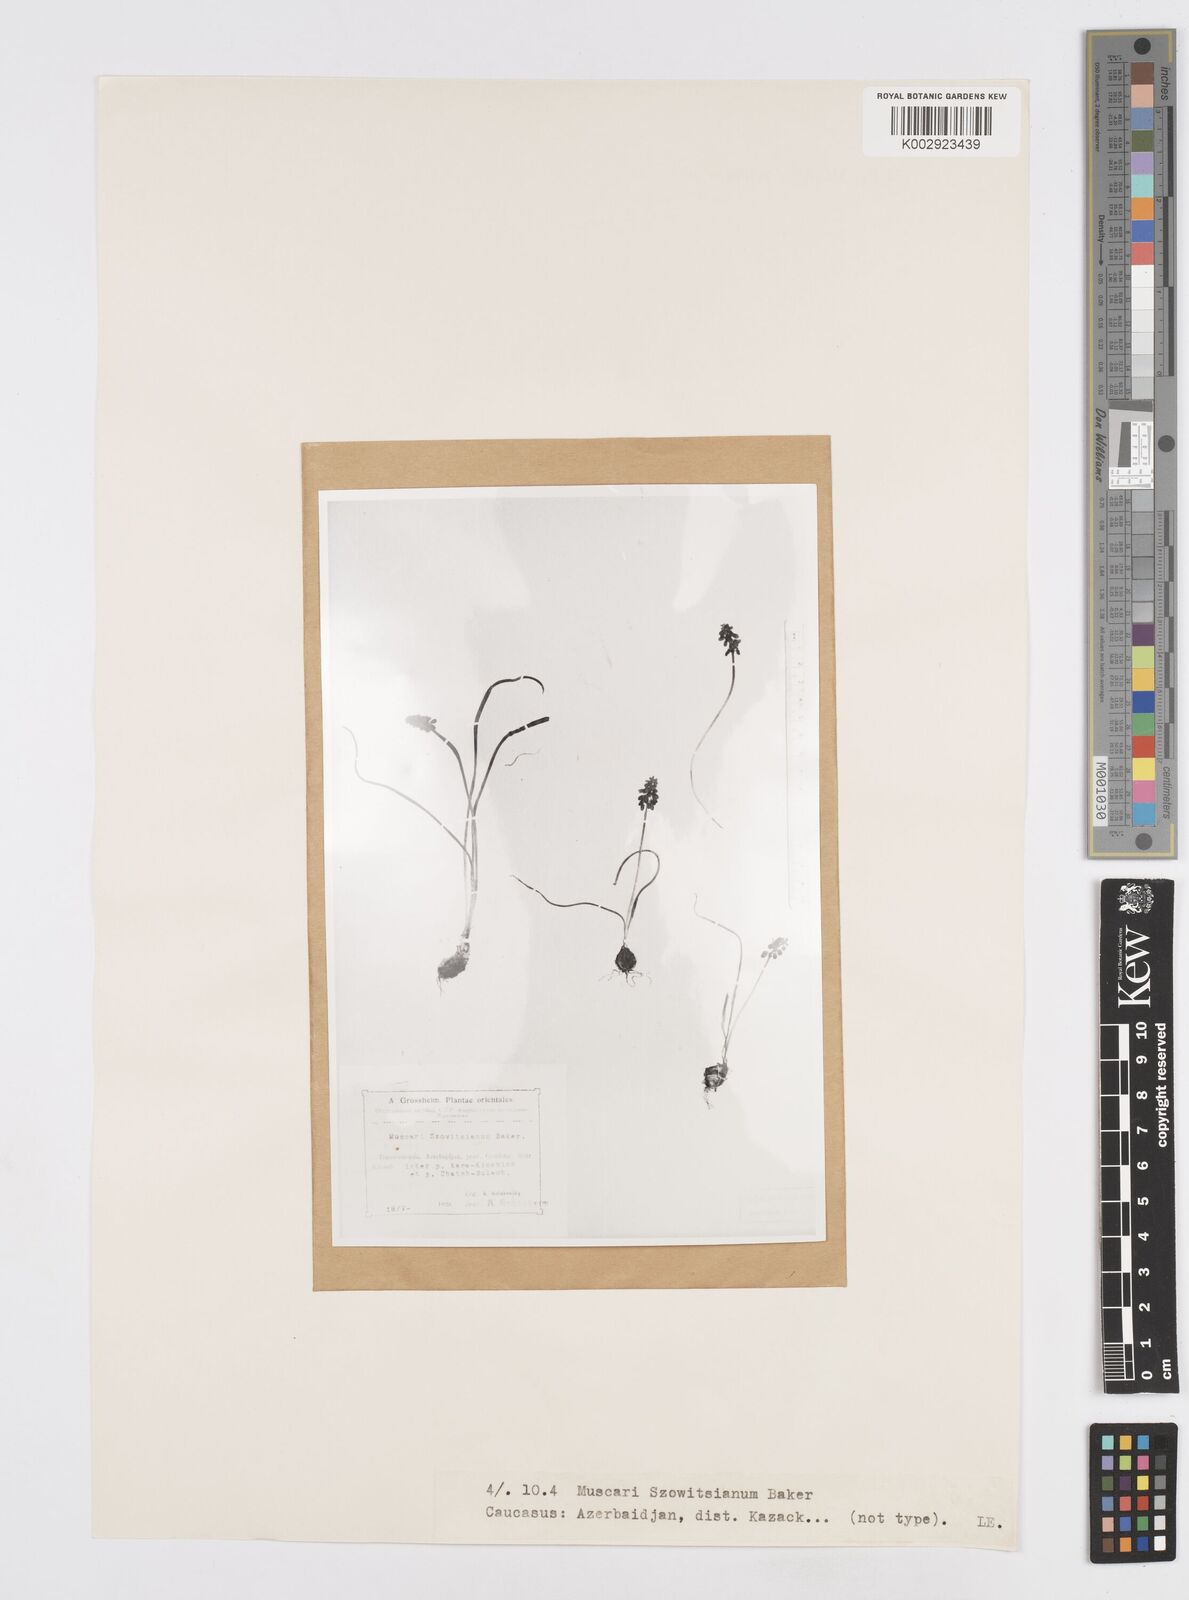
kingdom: Plantae
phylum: Tracheophyta
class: Liliopsida
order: Asparagales
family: Asparagaceae
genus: Muscari
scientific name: Muscari armeniacum
